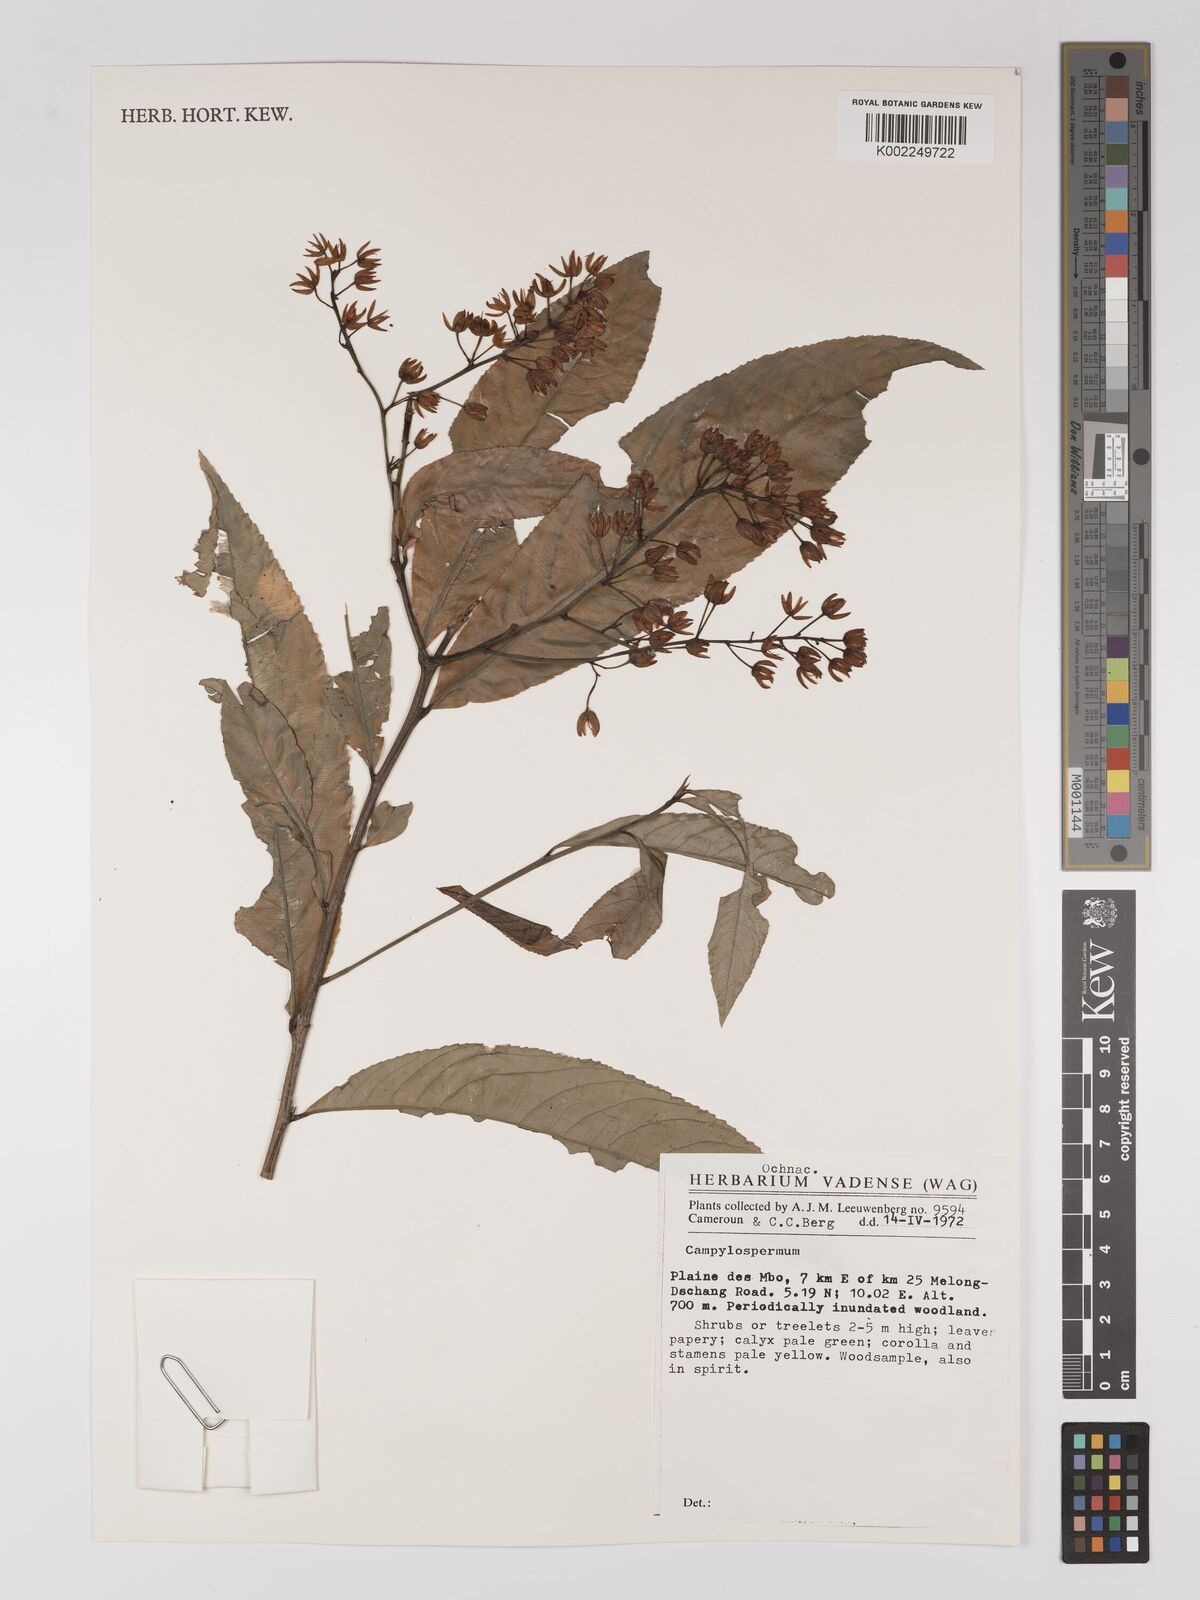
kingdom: Plantae
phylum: Tracheophyta
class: Magnoliopsida
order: Malpighiales
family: Ochnaceae
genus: Campylospermum
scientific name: Campylospermum
